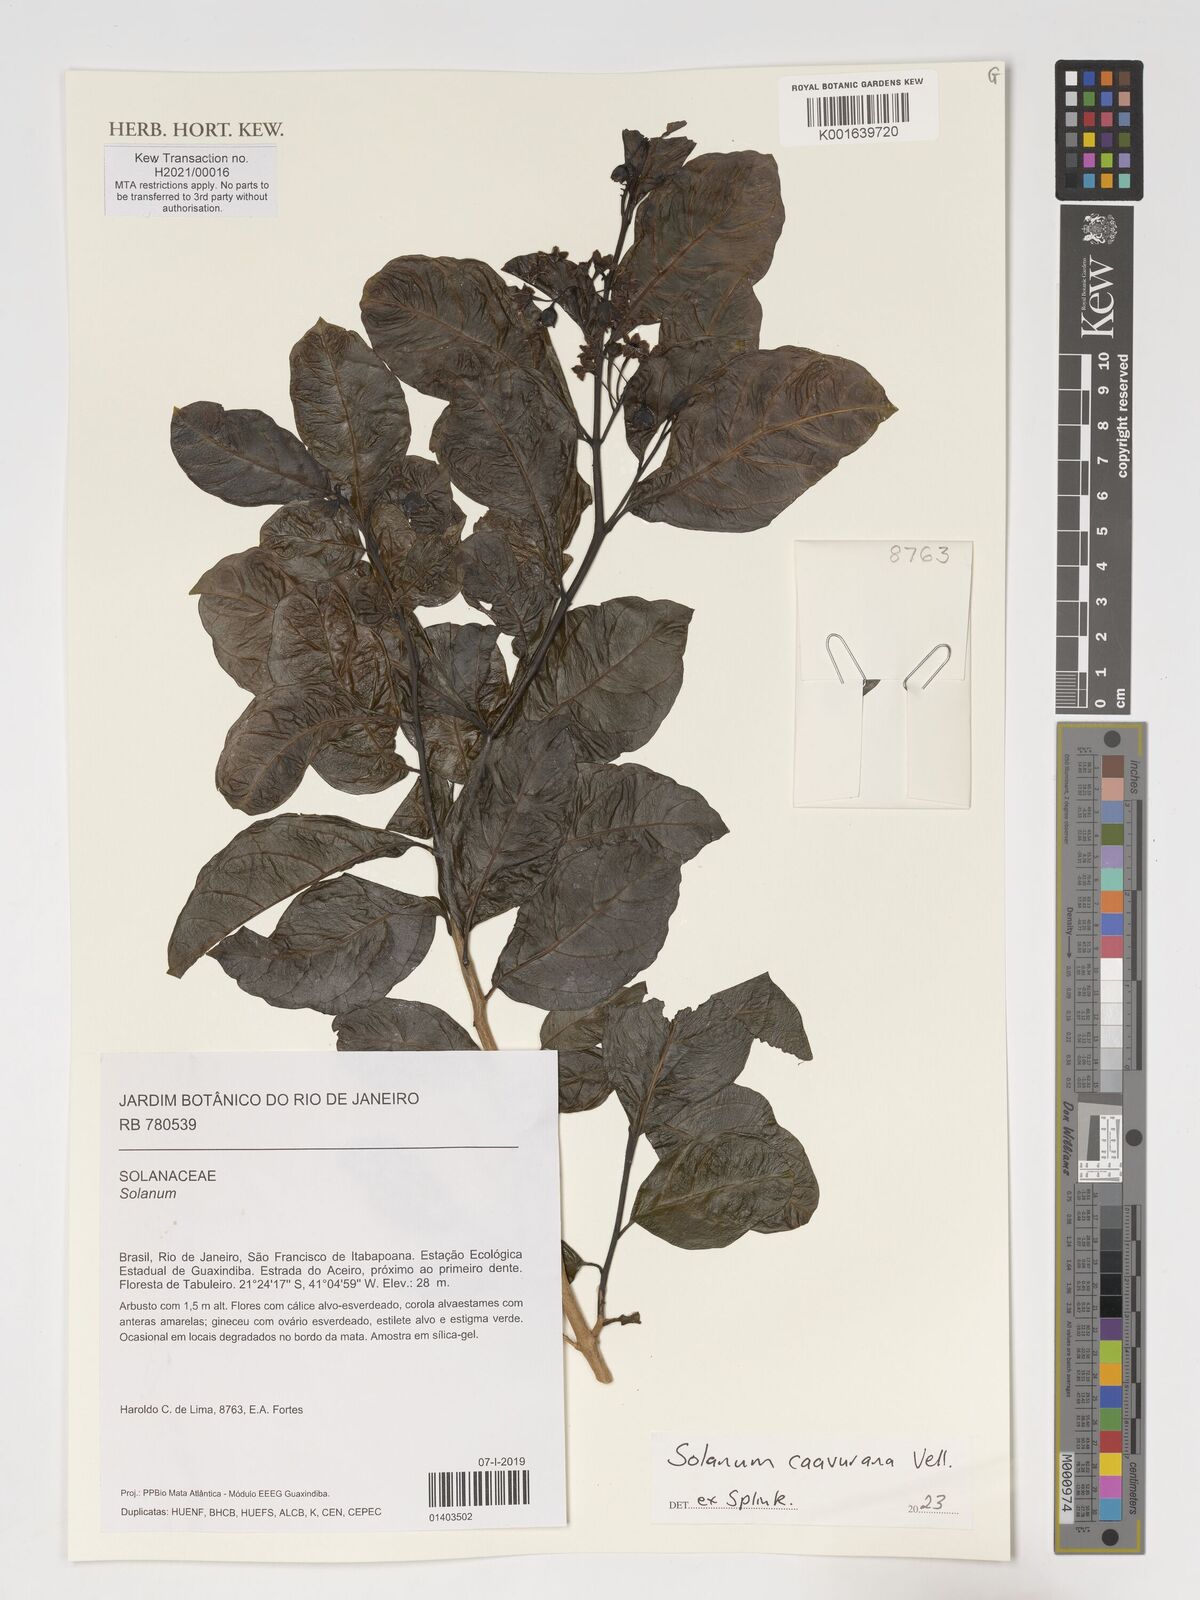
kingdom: Plantae
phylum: Tracheophyta
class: Magnoliopsida
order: Solanales
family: Solanaceae
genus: Solanum
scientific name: Solanum caavurana
